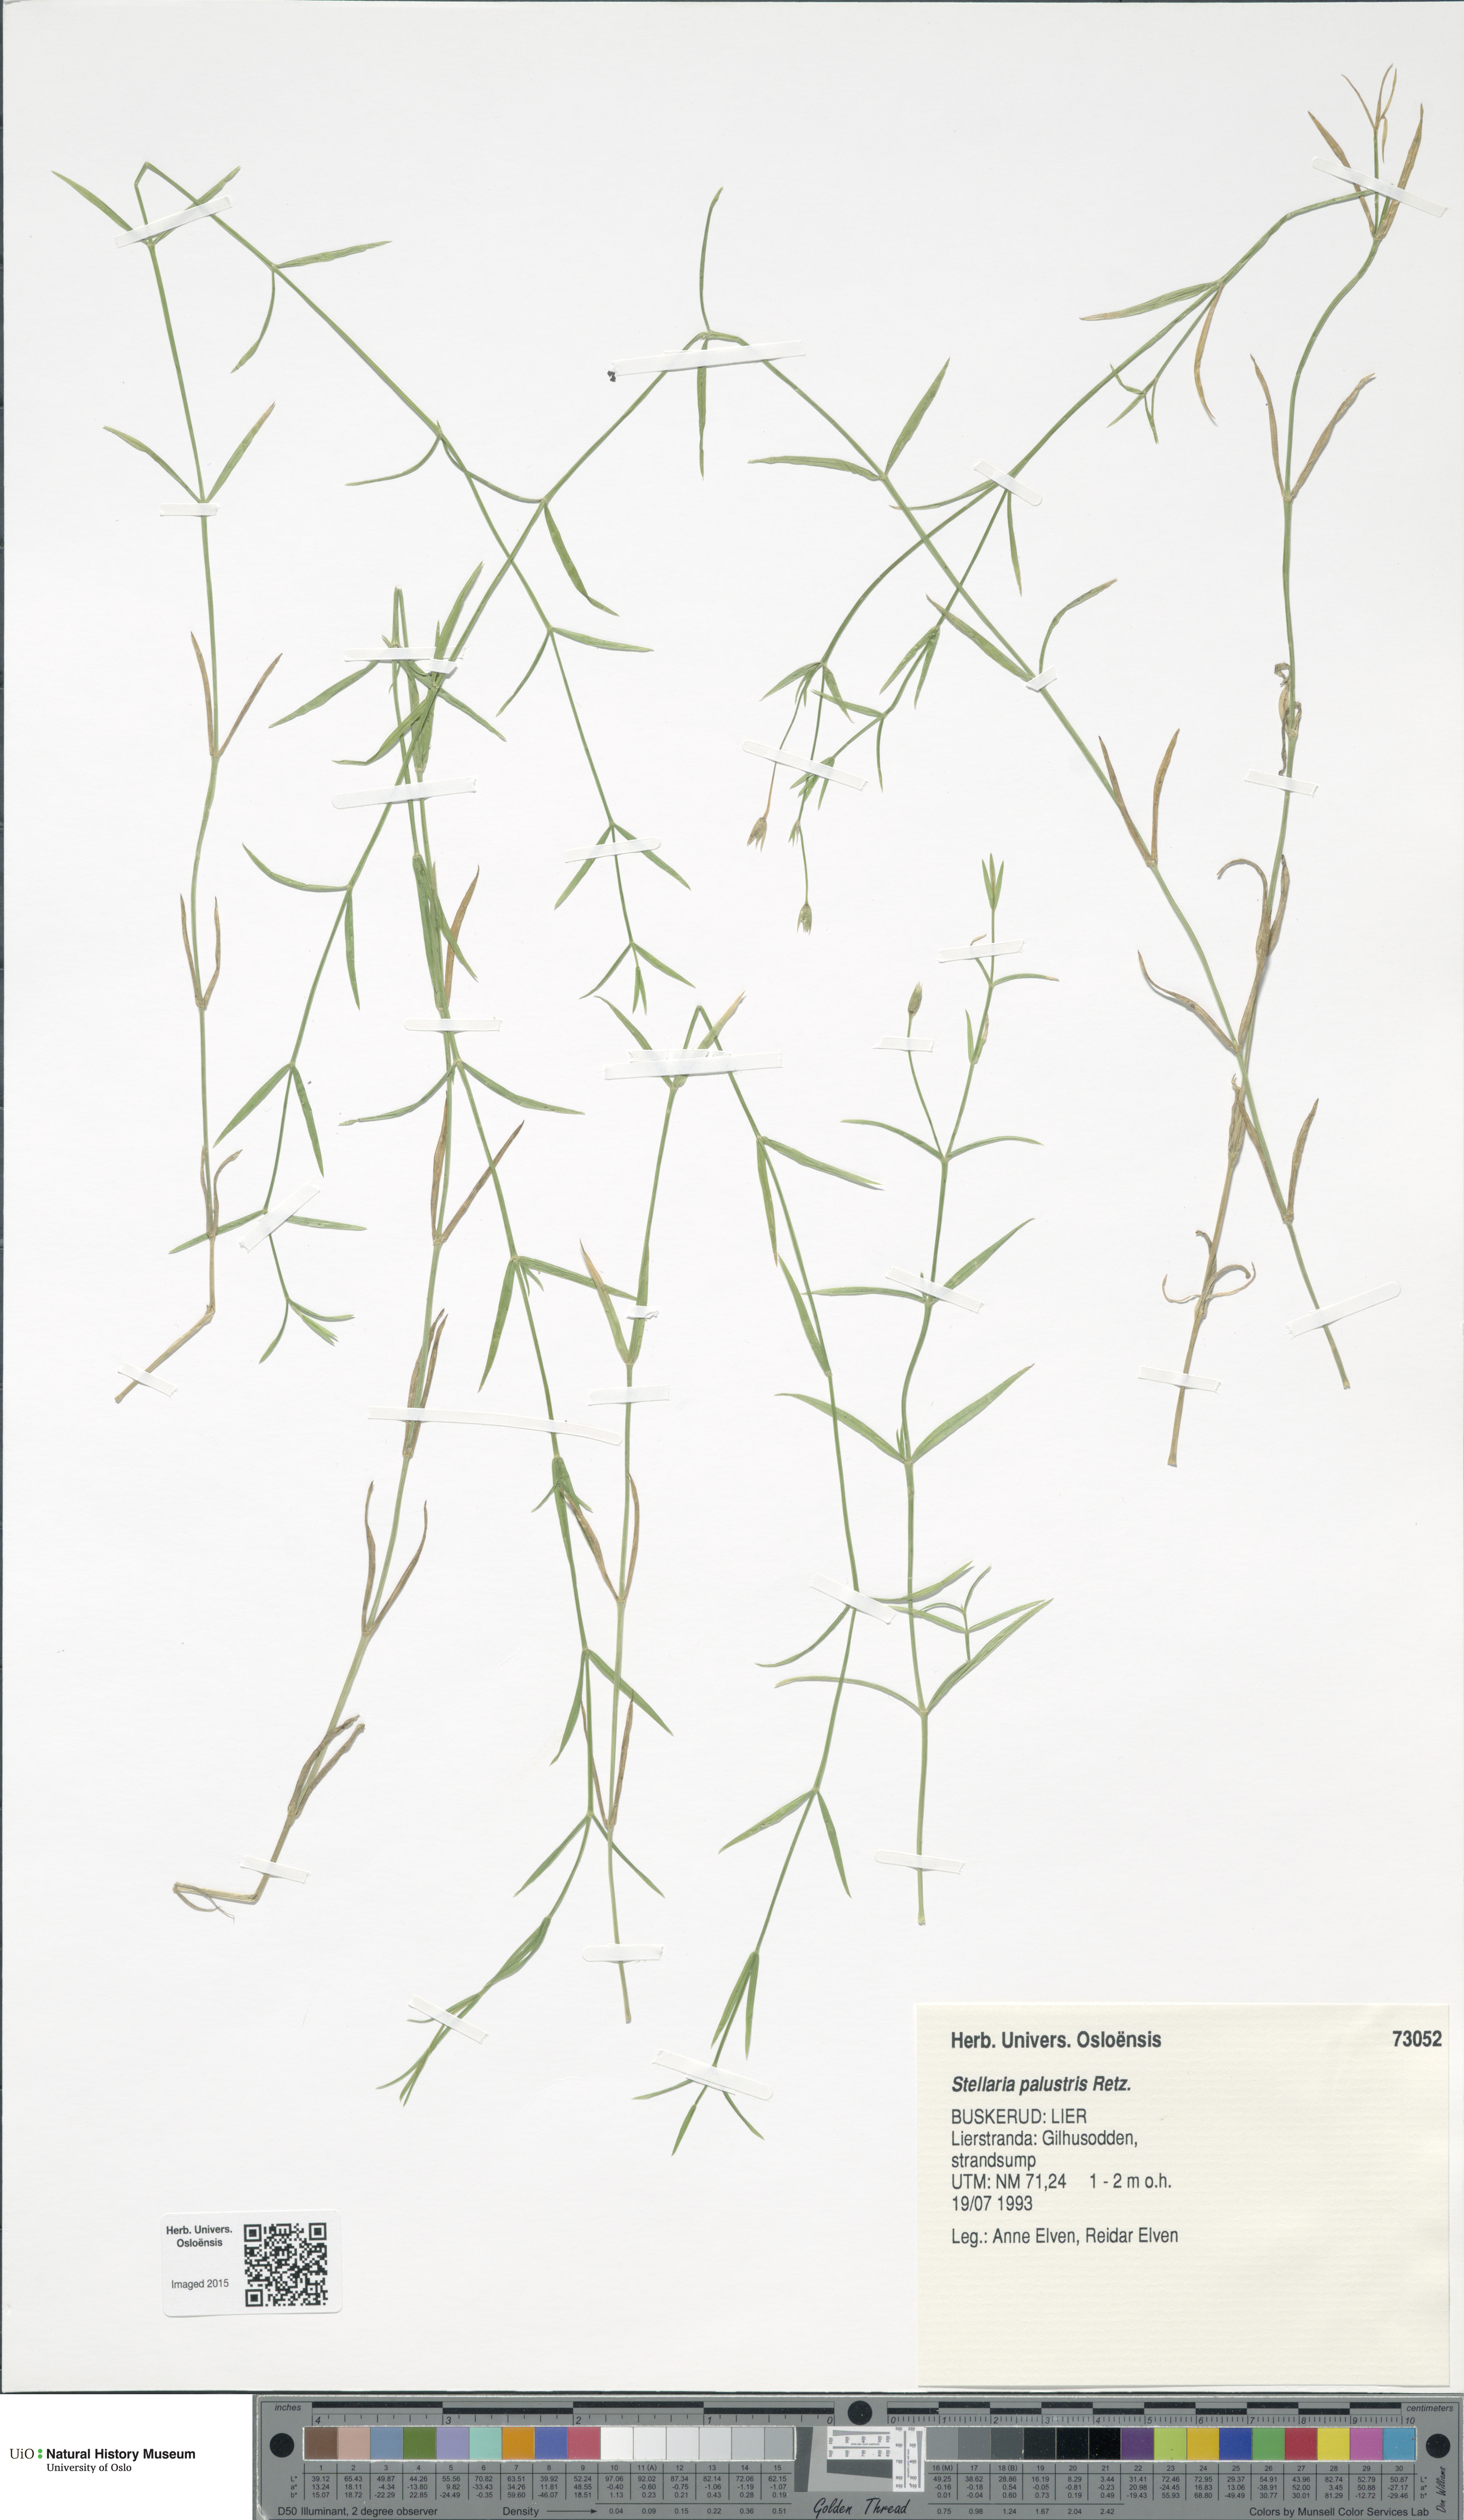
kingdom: Plantae
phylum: Tracheophyta
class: Magnoliopsida
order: Caryophyllales
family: Caryophyllaceae
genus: Stellaria
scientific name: Stellaria palustris
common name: Marsh stitchwort
